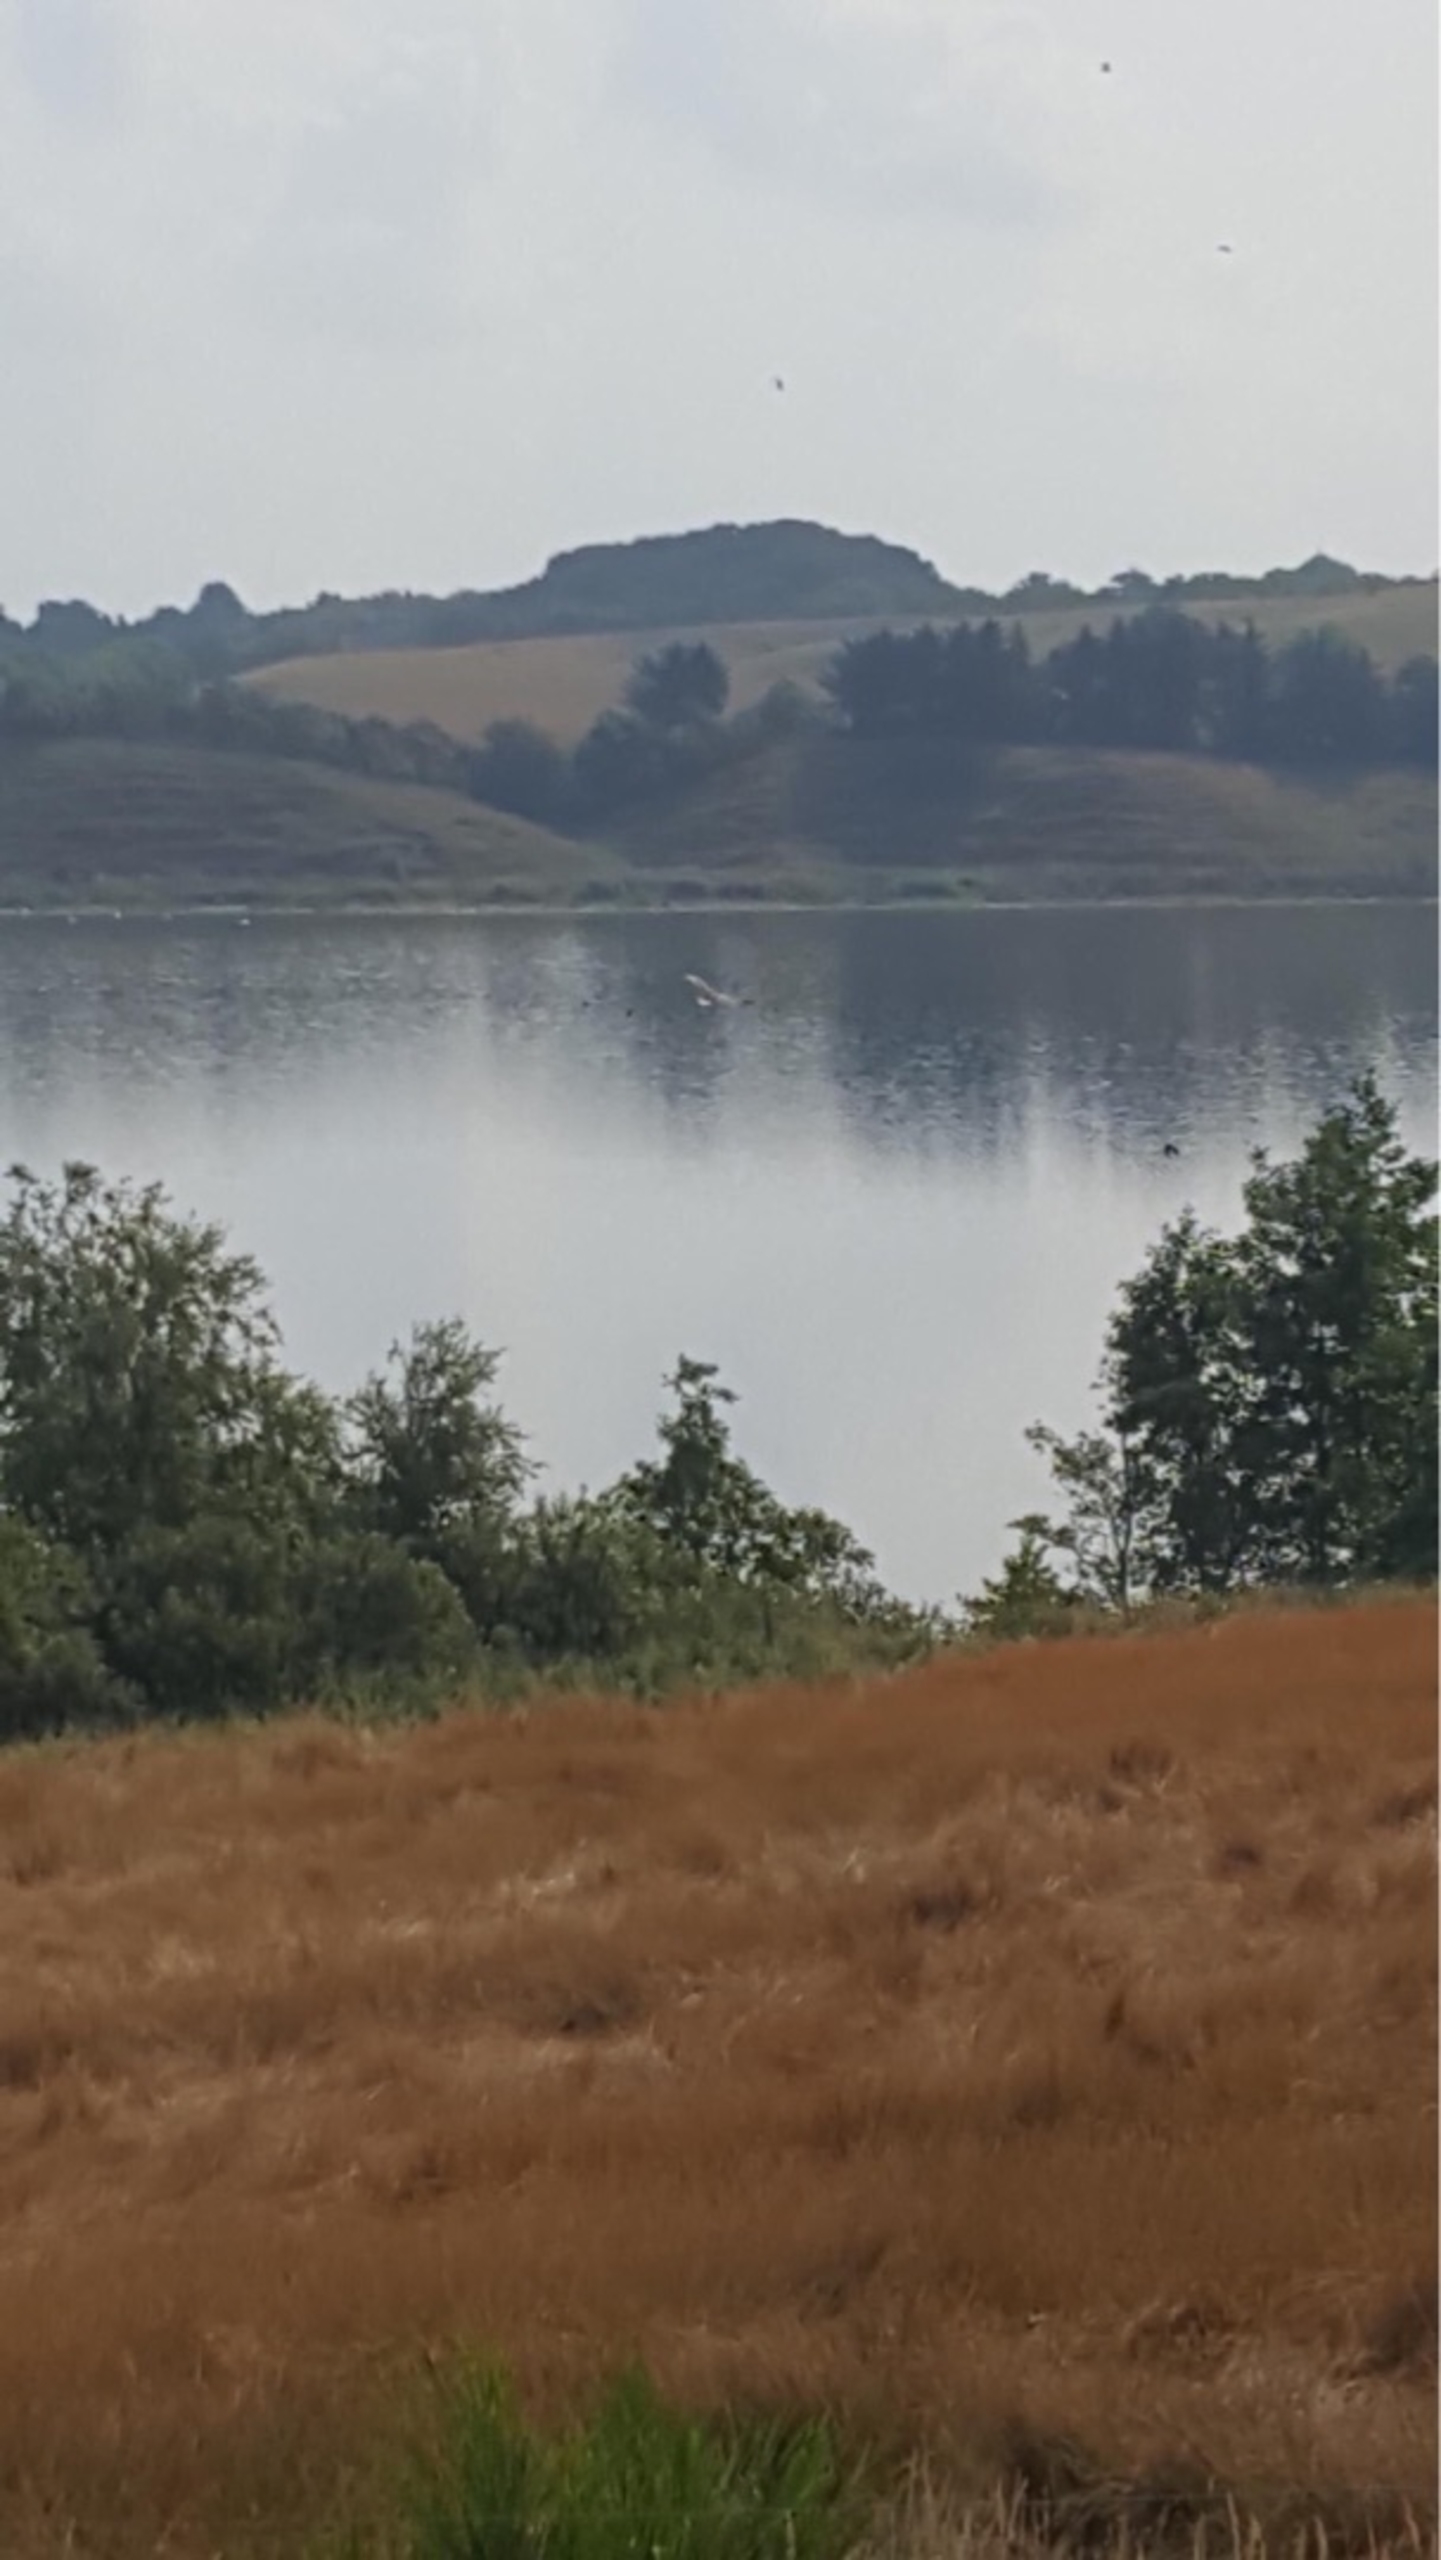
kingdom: Animalia
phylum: Chordata
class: Aves
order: Accipitriformes
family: Accipitridae
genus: Haliaeetus
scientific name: Haliaeetus albicilla
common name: Havørn
